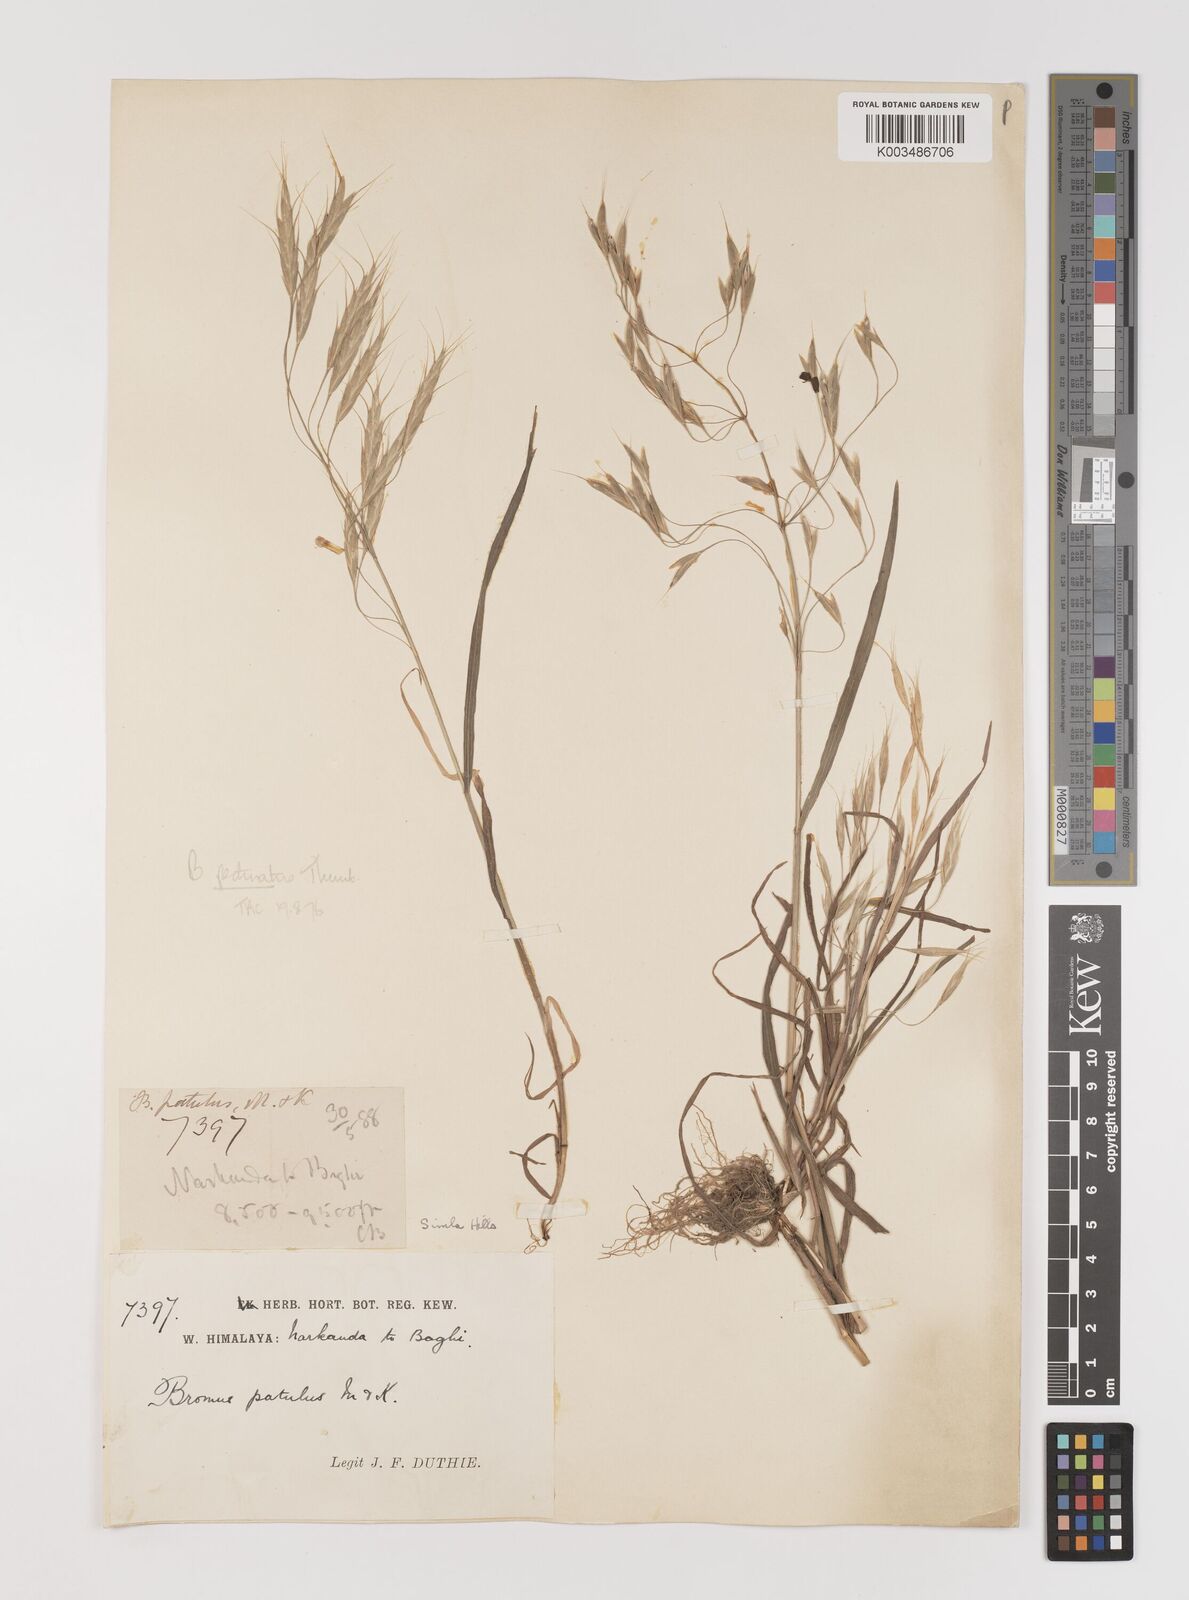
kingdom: Plantae
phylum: Tracheophyta
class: Liliopsida
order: Poales
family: Poaceae
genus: Bromus
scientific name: Bromus pectinatus
